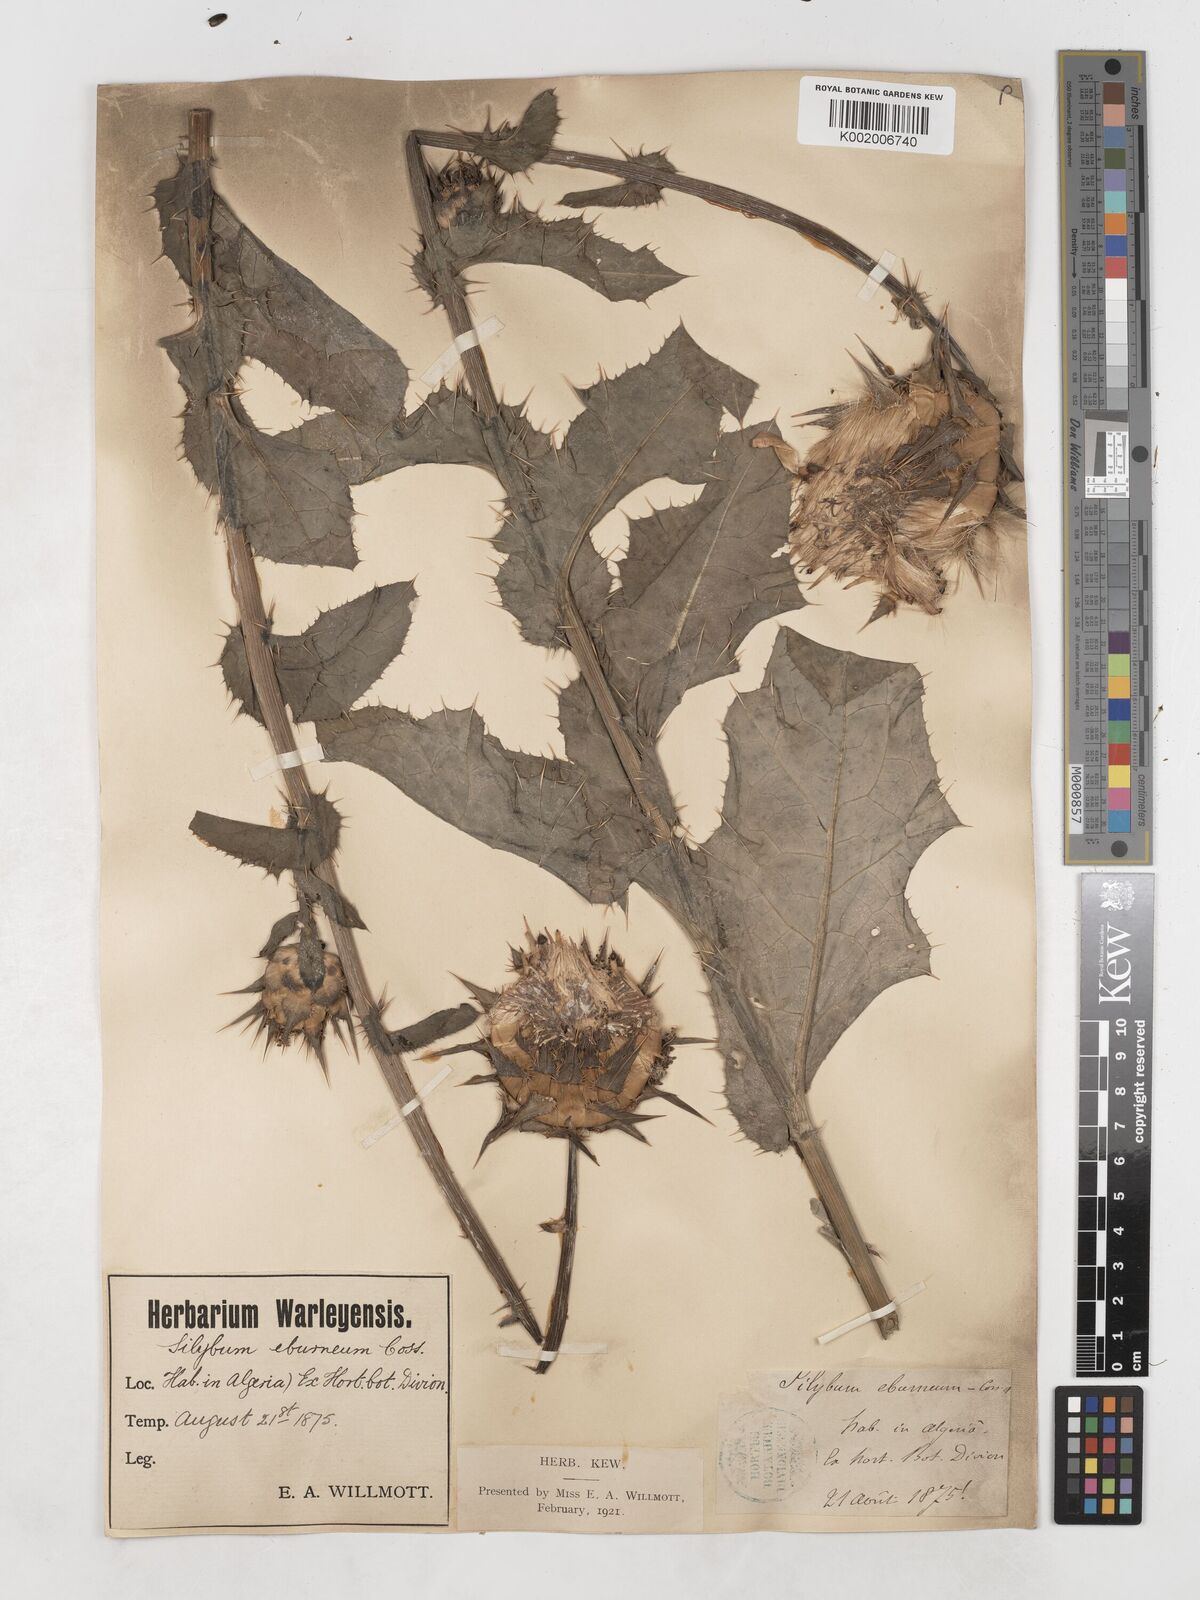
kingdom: Plantae
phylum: Tracheophyta
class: Magnoliopsida
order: Asterales
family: Asteraceae
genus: Silybum
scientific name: Silybum eburneum
